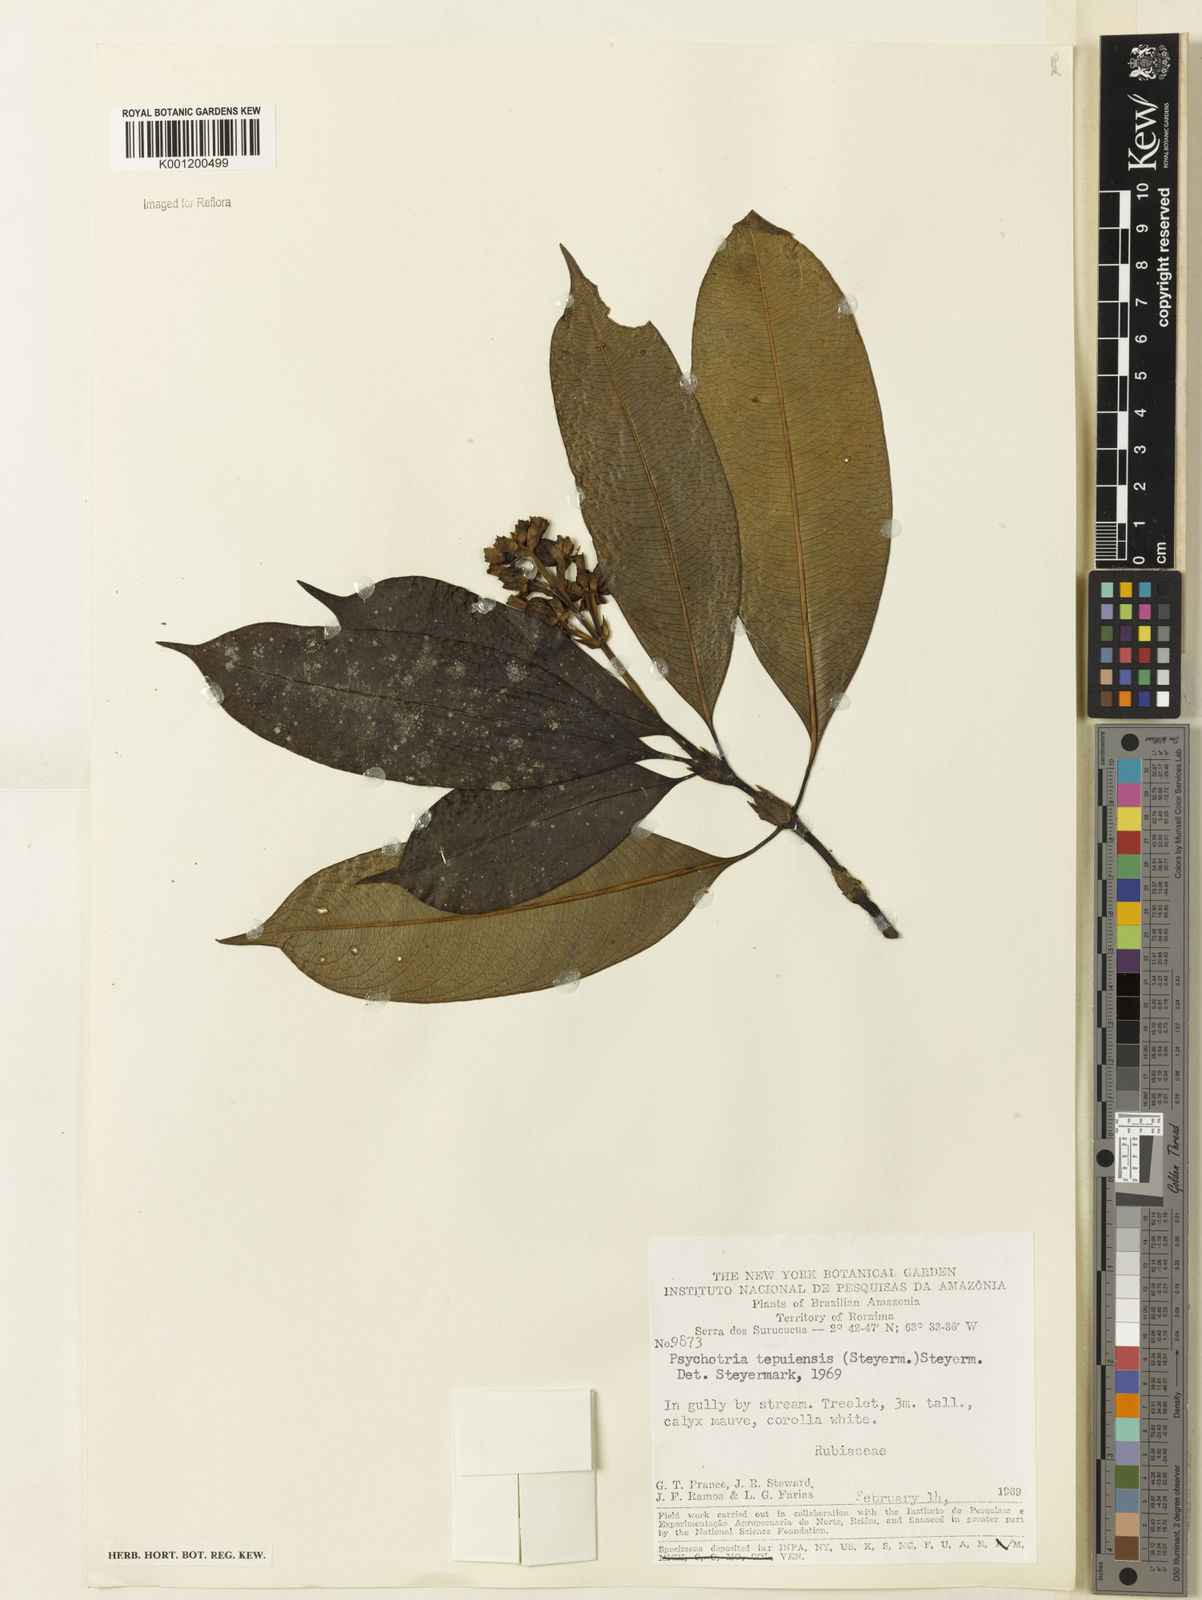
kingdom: Plantae
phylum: Tracheophyta
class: Magnoliopsida
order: Gentianales
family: Rubiaceae
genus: Palicourea
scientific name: Palicourea tepuiensis
